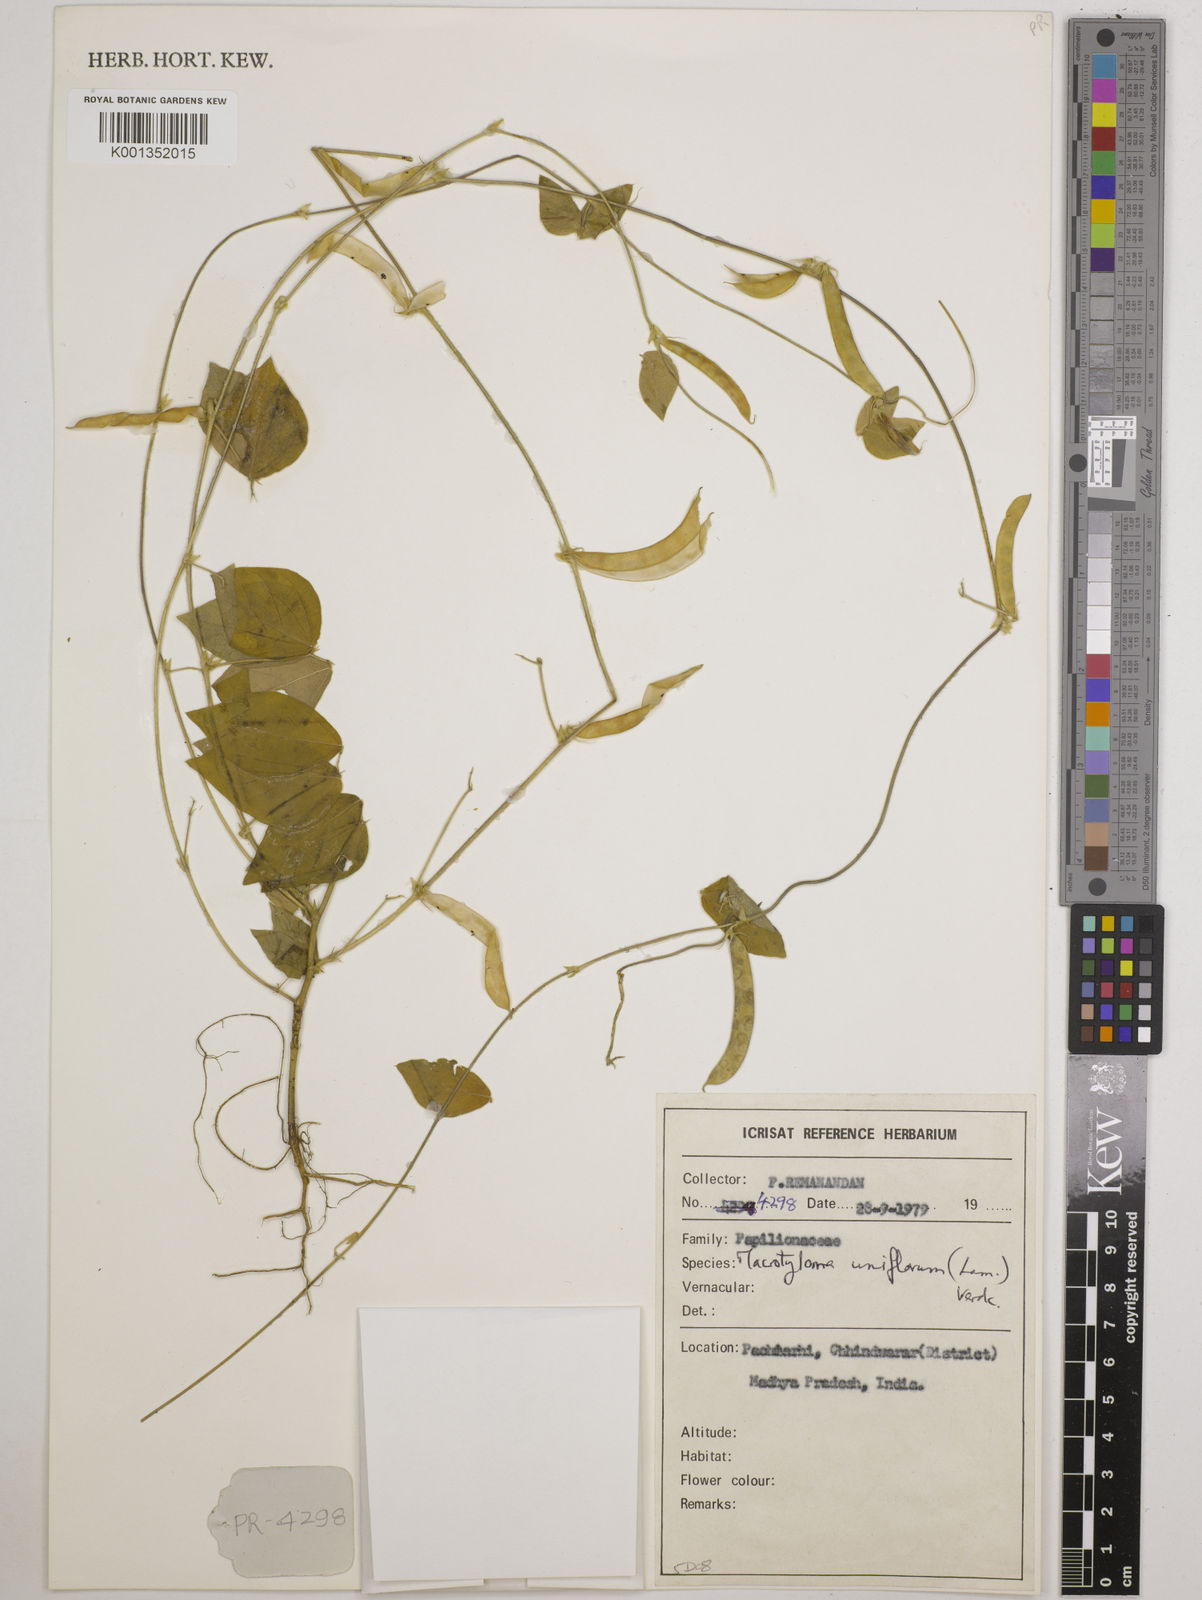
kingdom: Plantae
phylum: Tracheophyta
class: Magnoliopsida
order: Fabales
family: Fabaceae
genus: Macrotyloma
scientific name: Macrotyloma uniflorum
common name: Horse gram
